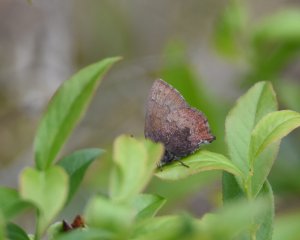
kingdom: Animalia
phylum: Arthropoda
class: Insecta
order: Lepidoptera
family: Lycaenidae
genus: Incisalia
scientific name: Incisalia irioides
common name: Brown Elfin
